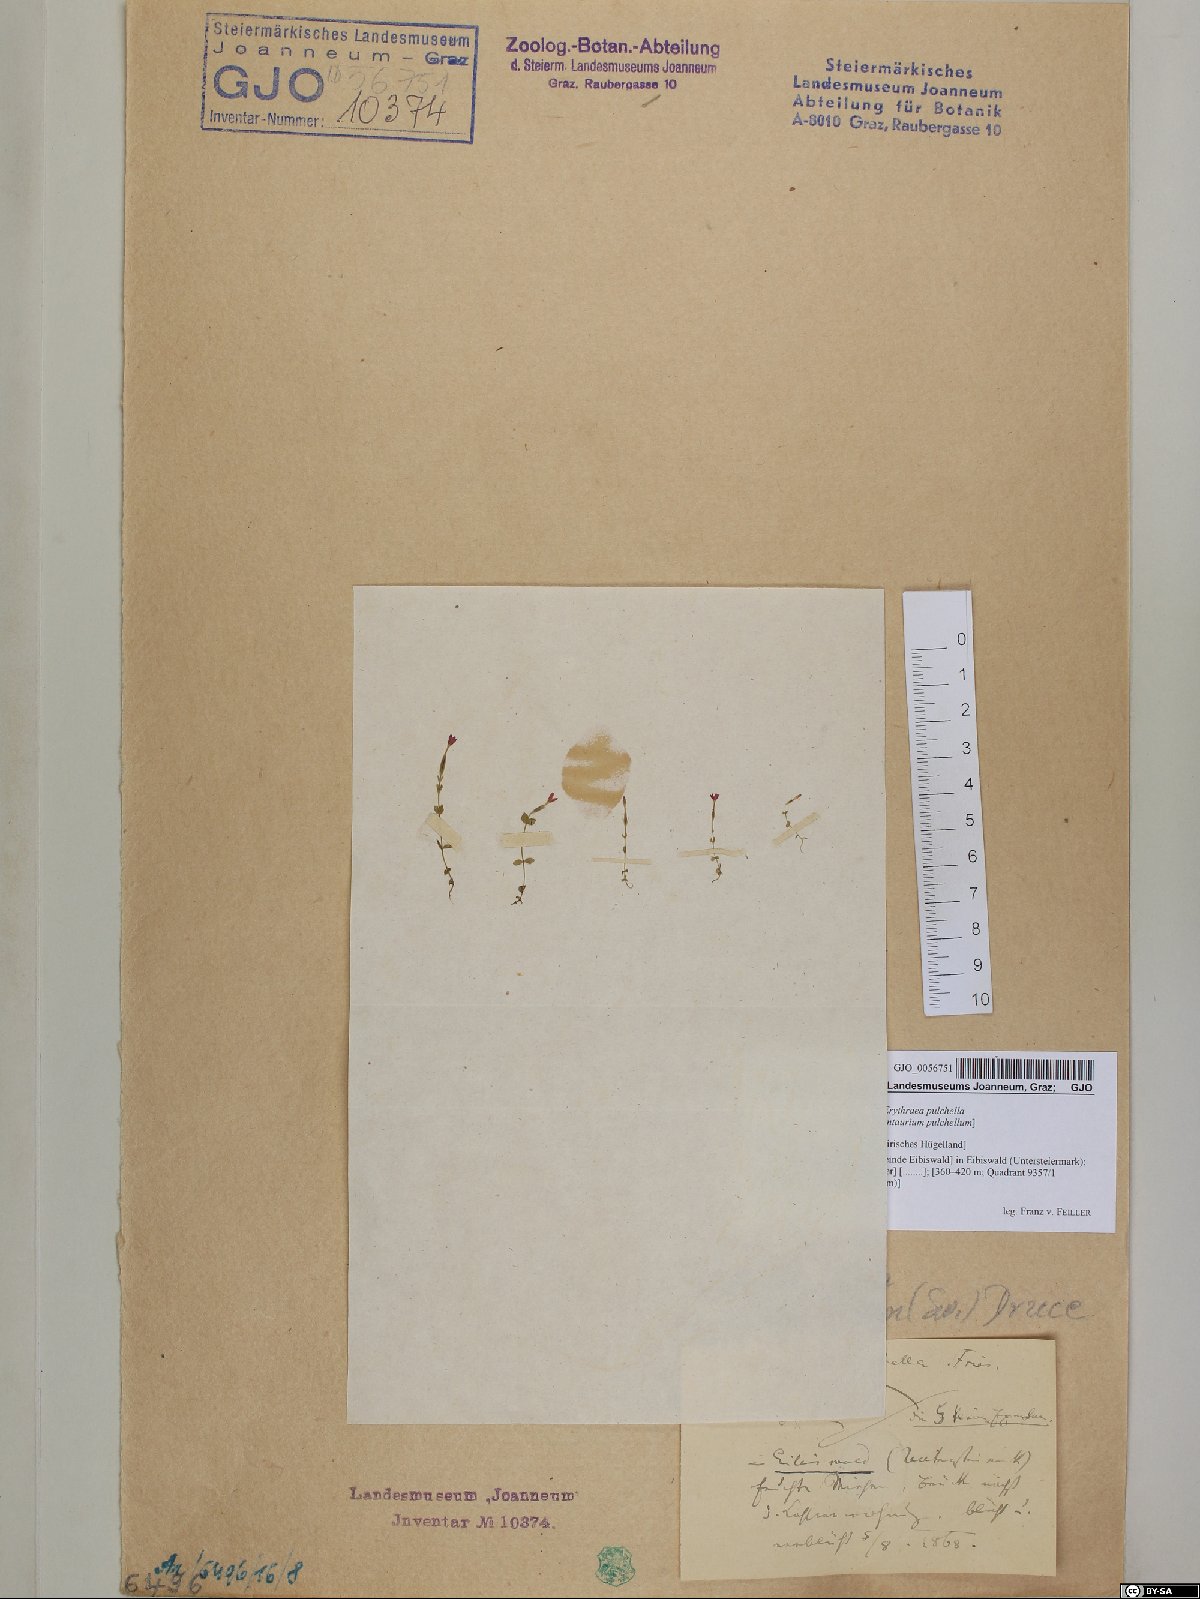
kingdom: Plantae
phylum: Tracheophyta
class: Magnoliopsida
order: Gentianales
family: Gentianaceae
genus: Centaurium
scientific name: Centaurium pulchellum
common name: Lesser centaury
